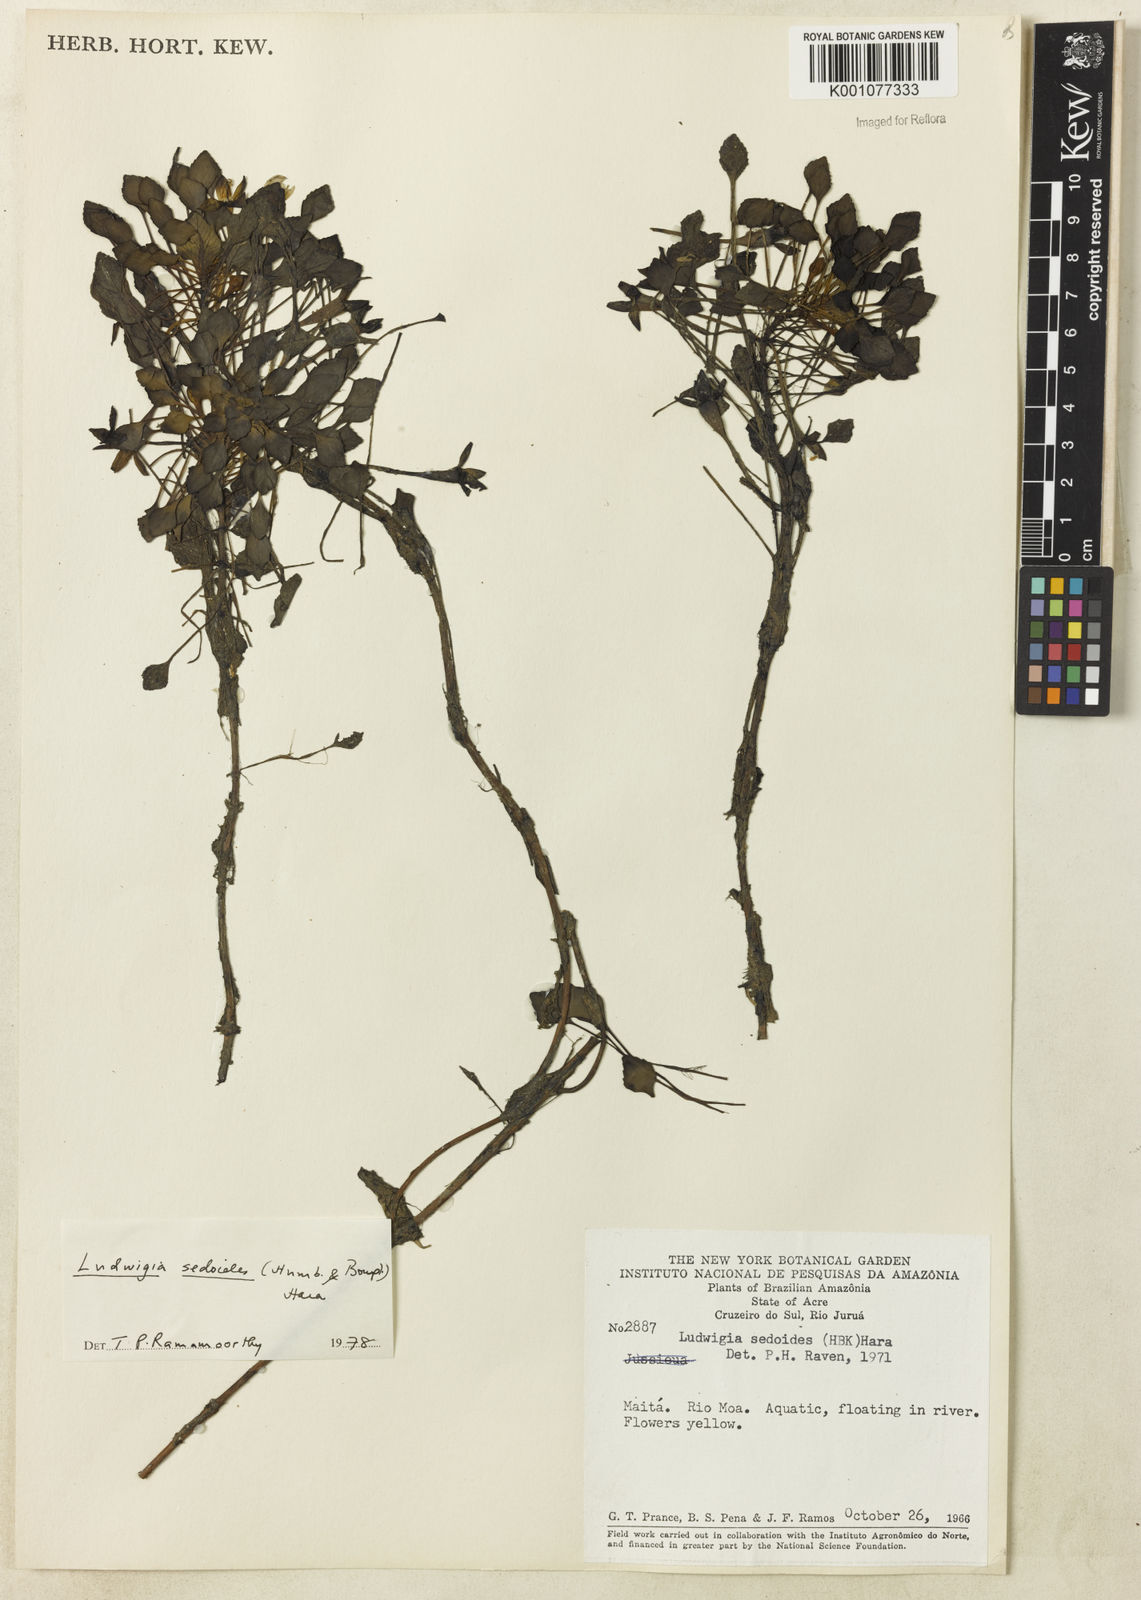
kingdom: Plantae
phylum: Tracheophyta
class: Magnoliopsida
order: Myrtales
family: Onagraceae
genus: Ludwigia
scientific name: Ludwigia sedoides
